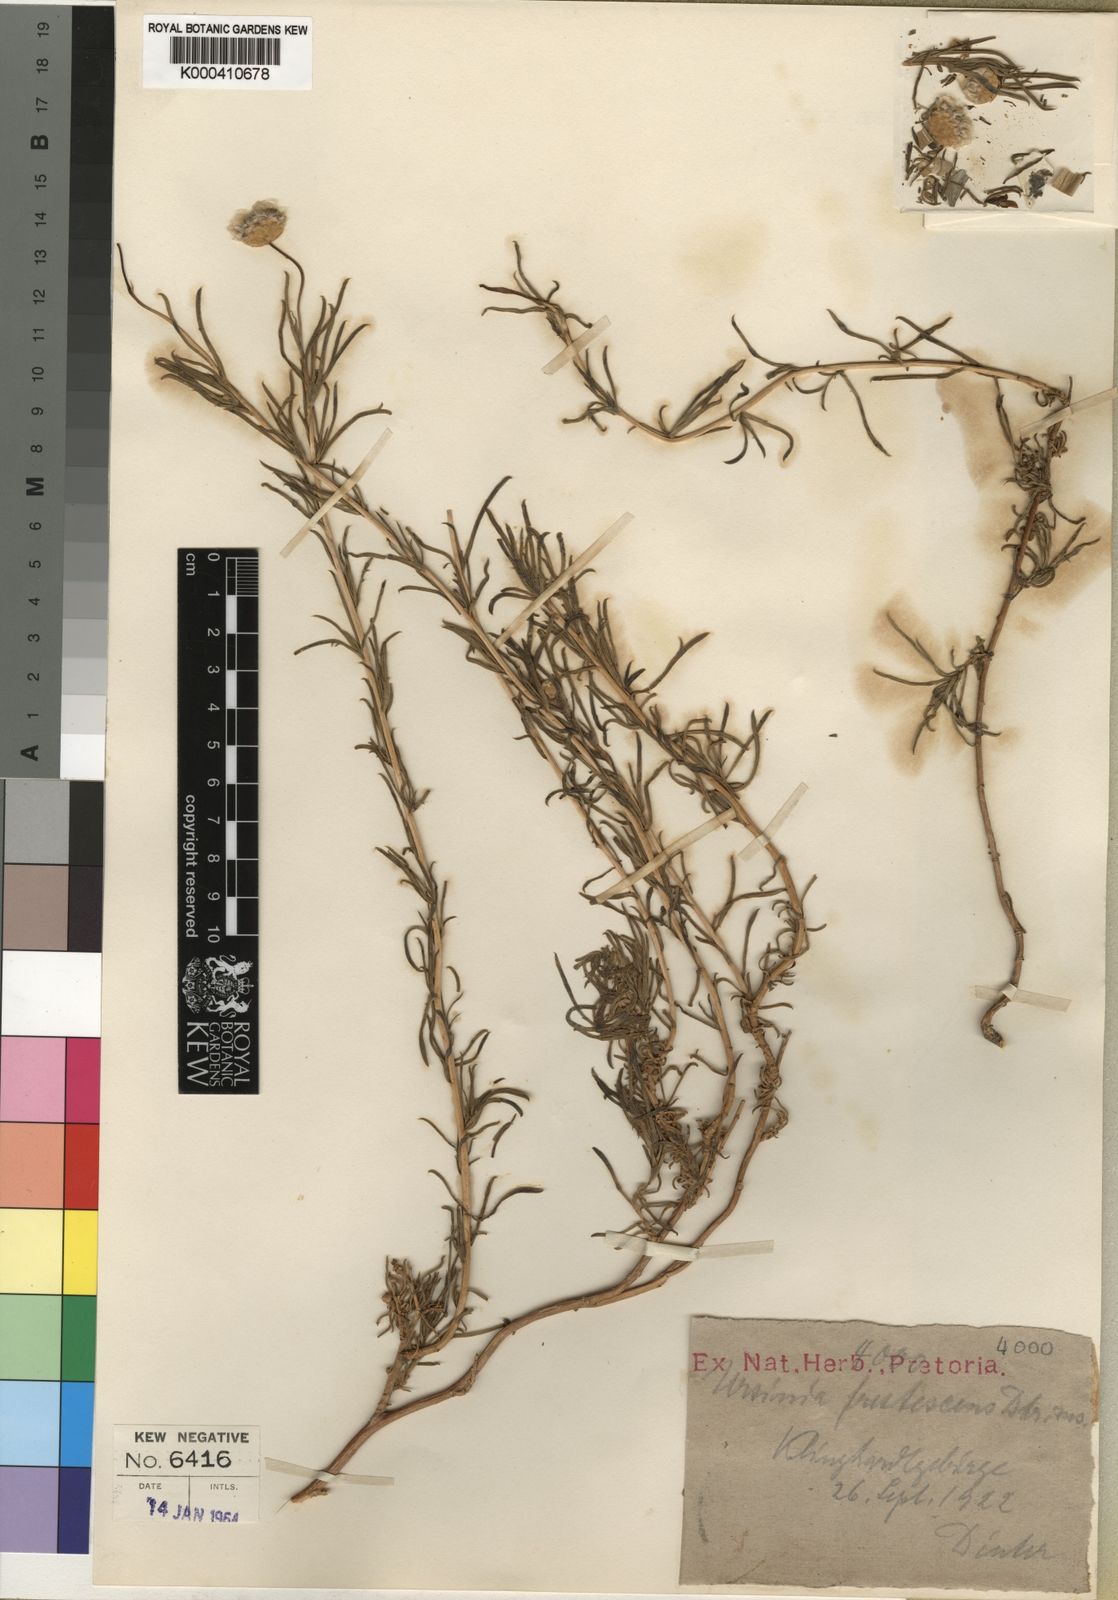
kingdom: Plantae
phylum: Tracheophyta
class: Magnoliopsida
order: Asterales
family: Asteraceae
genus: Ursinia
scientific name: Ursinia frutescens
